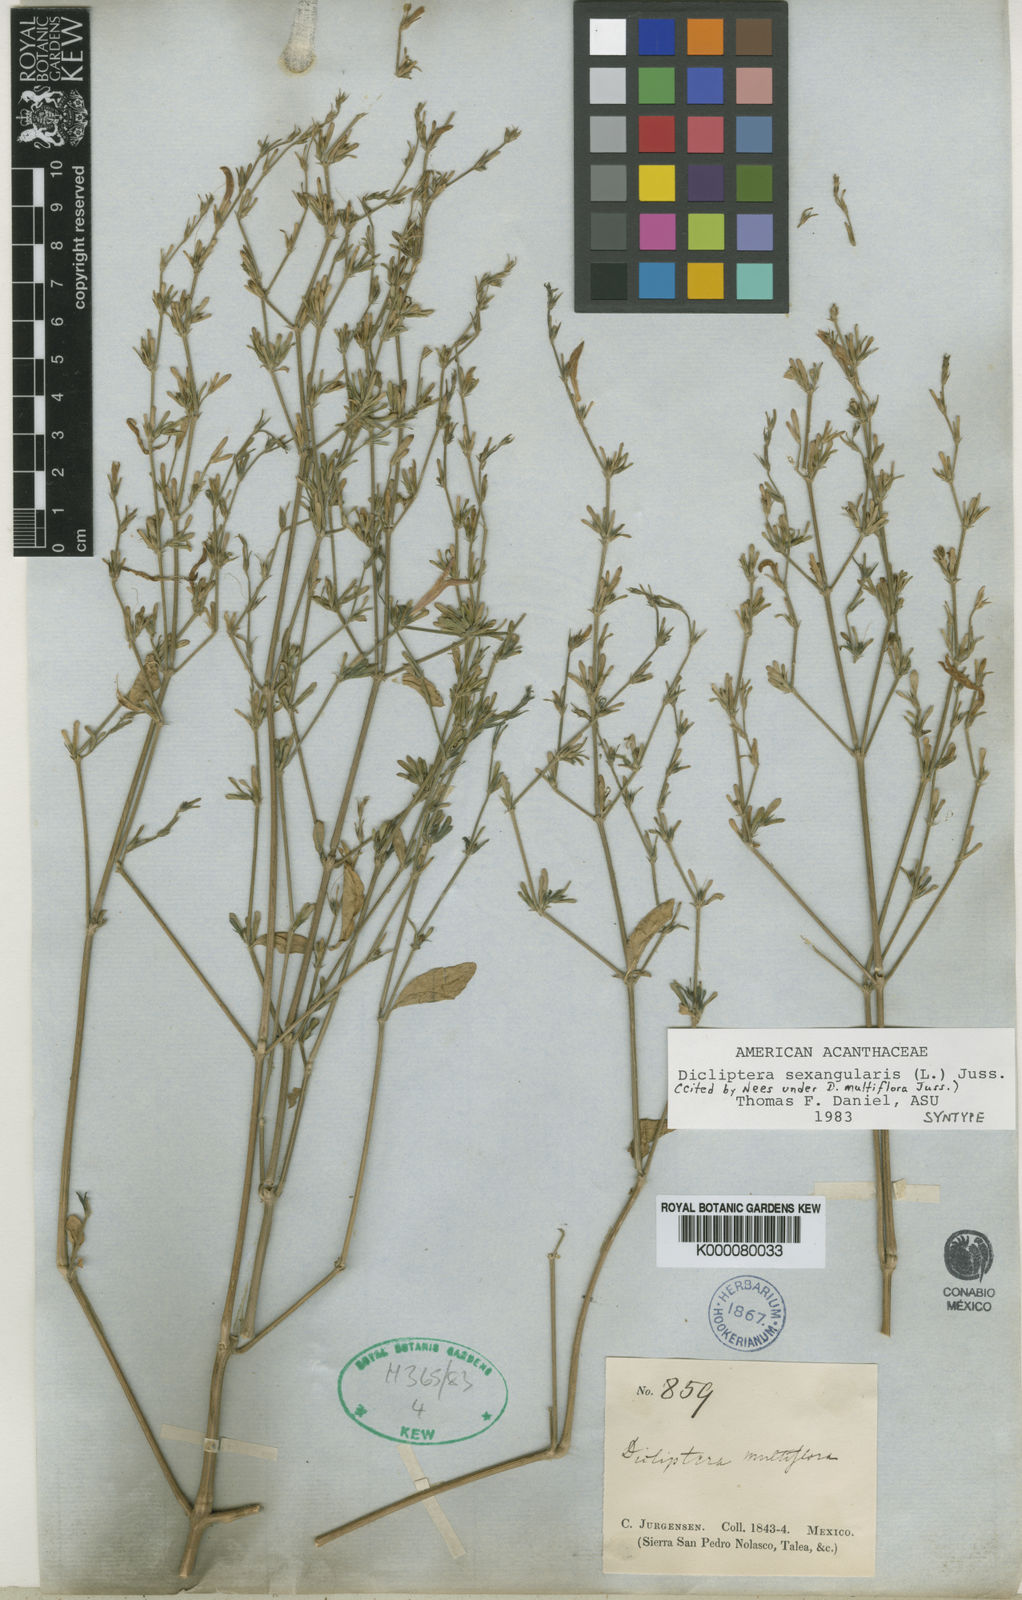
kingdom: Plantae
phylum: Tracheophyta
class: Magnoliopsida
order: Lamiales
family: Acanthaceae
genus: Dicliptera
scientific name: Dicliptera sexangularis
